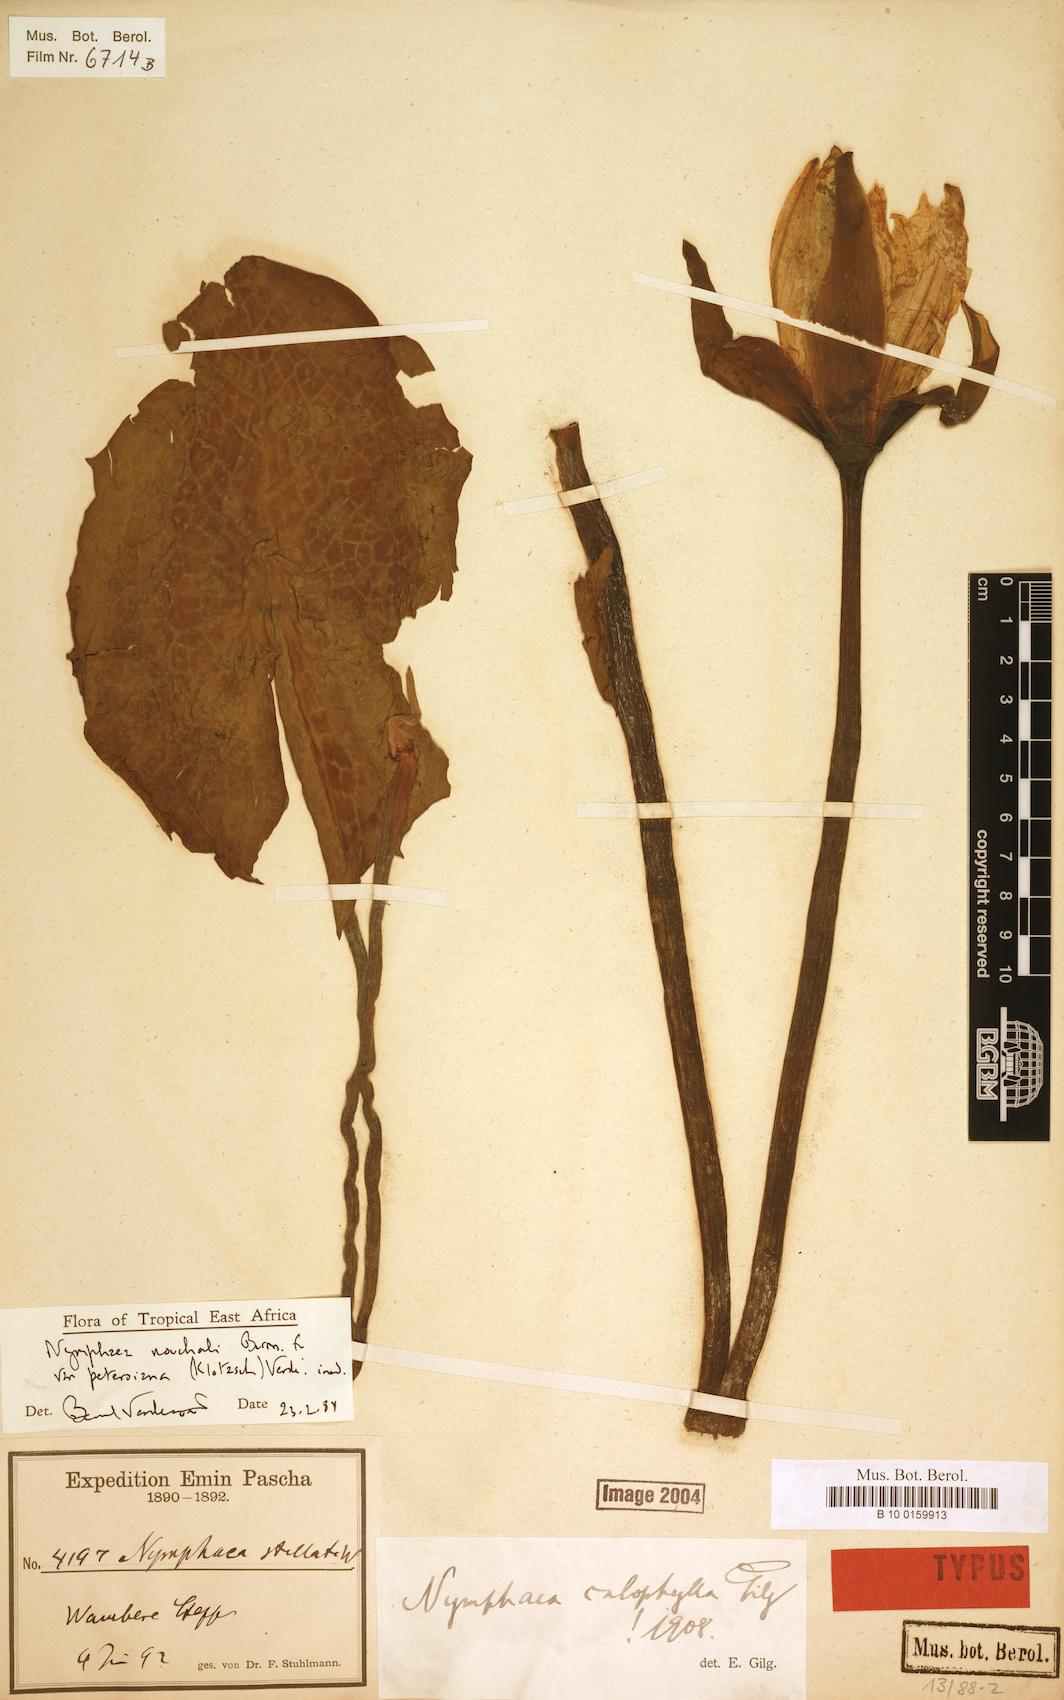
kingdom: Plantae
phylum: Tracheophyta
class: Magnoliopsida
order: Nymphaeales
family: Nymphaeaceae
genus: Nymphaea
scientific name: Nymphaea nouchali
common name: Blue lotus
